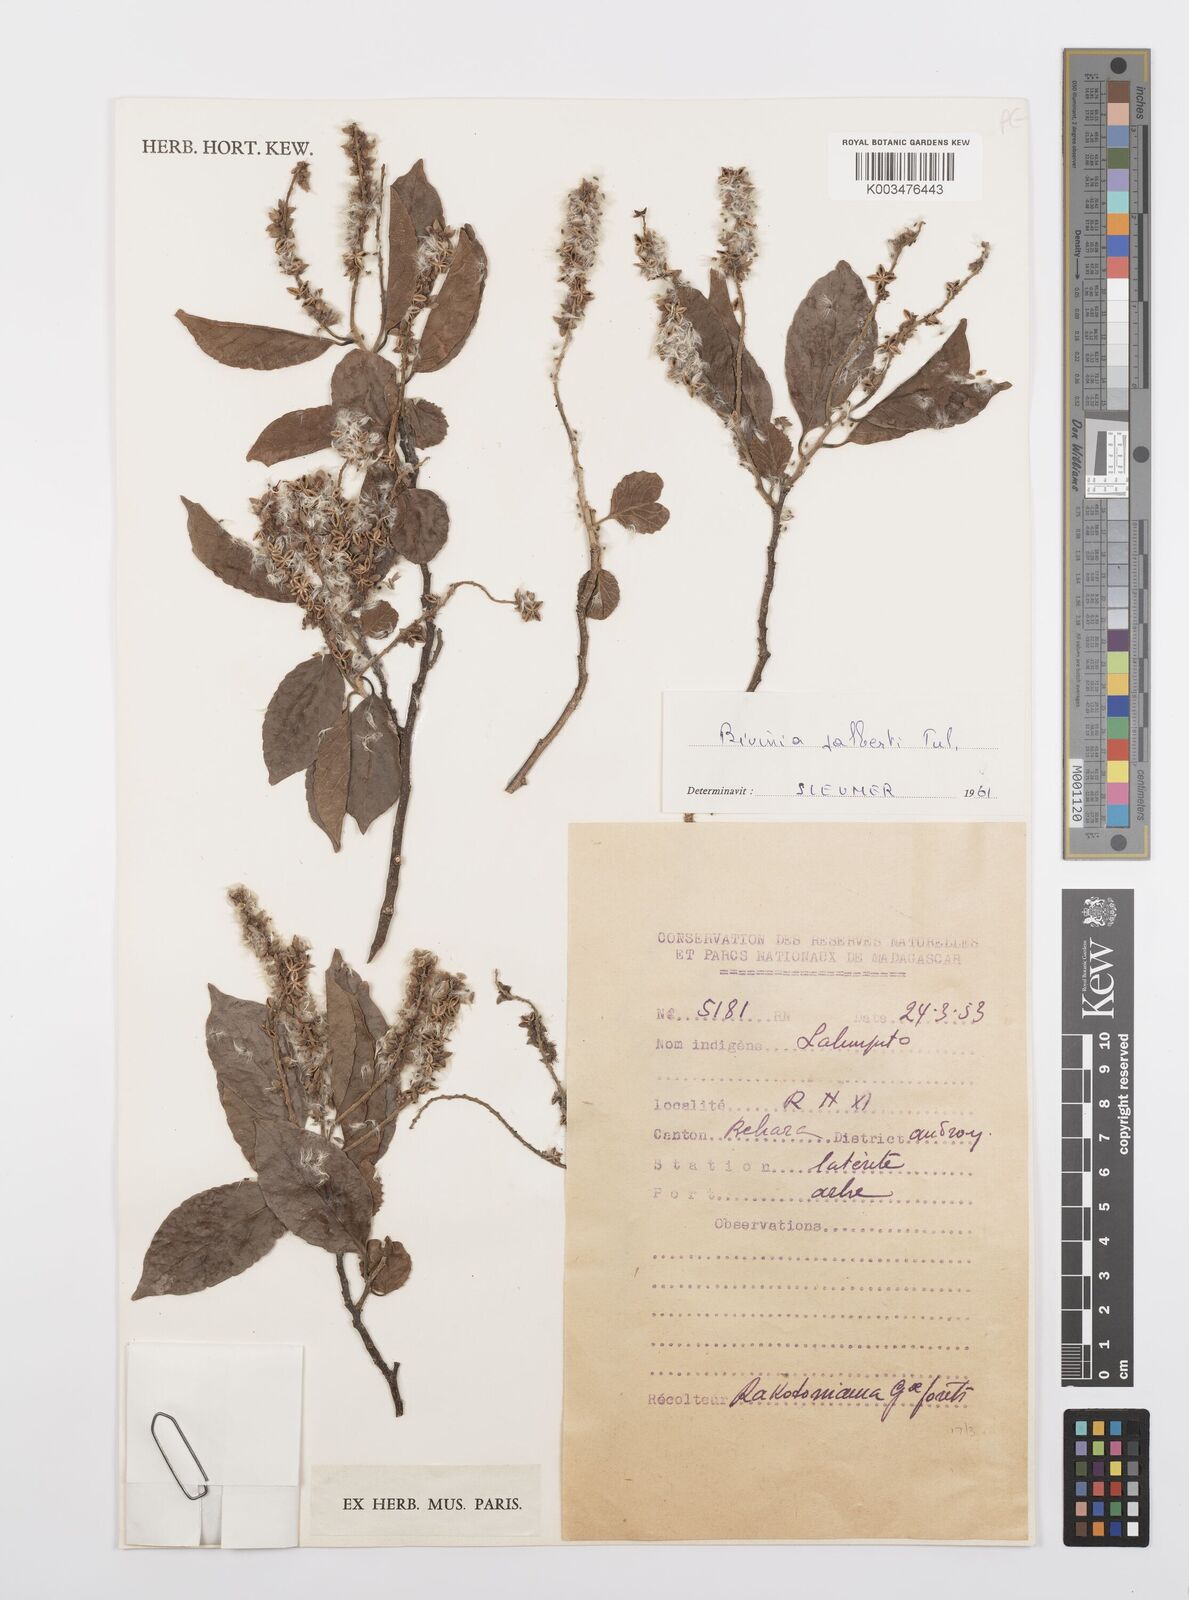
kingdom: Plantae
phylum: Tracheophyta
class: Magnoliopsida
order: Malpighiales
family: Salicaceae
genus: Bivinia
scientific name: Bivinia jalbertii
